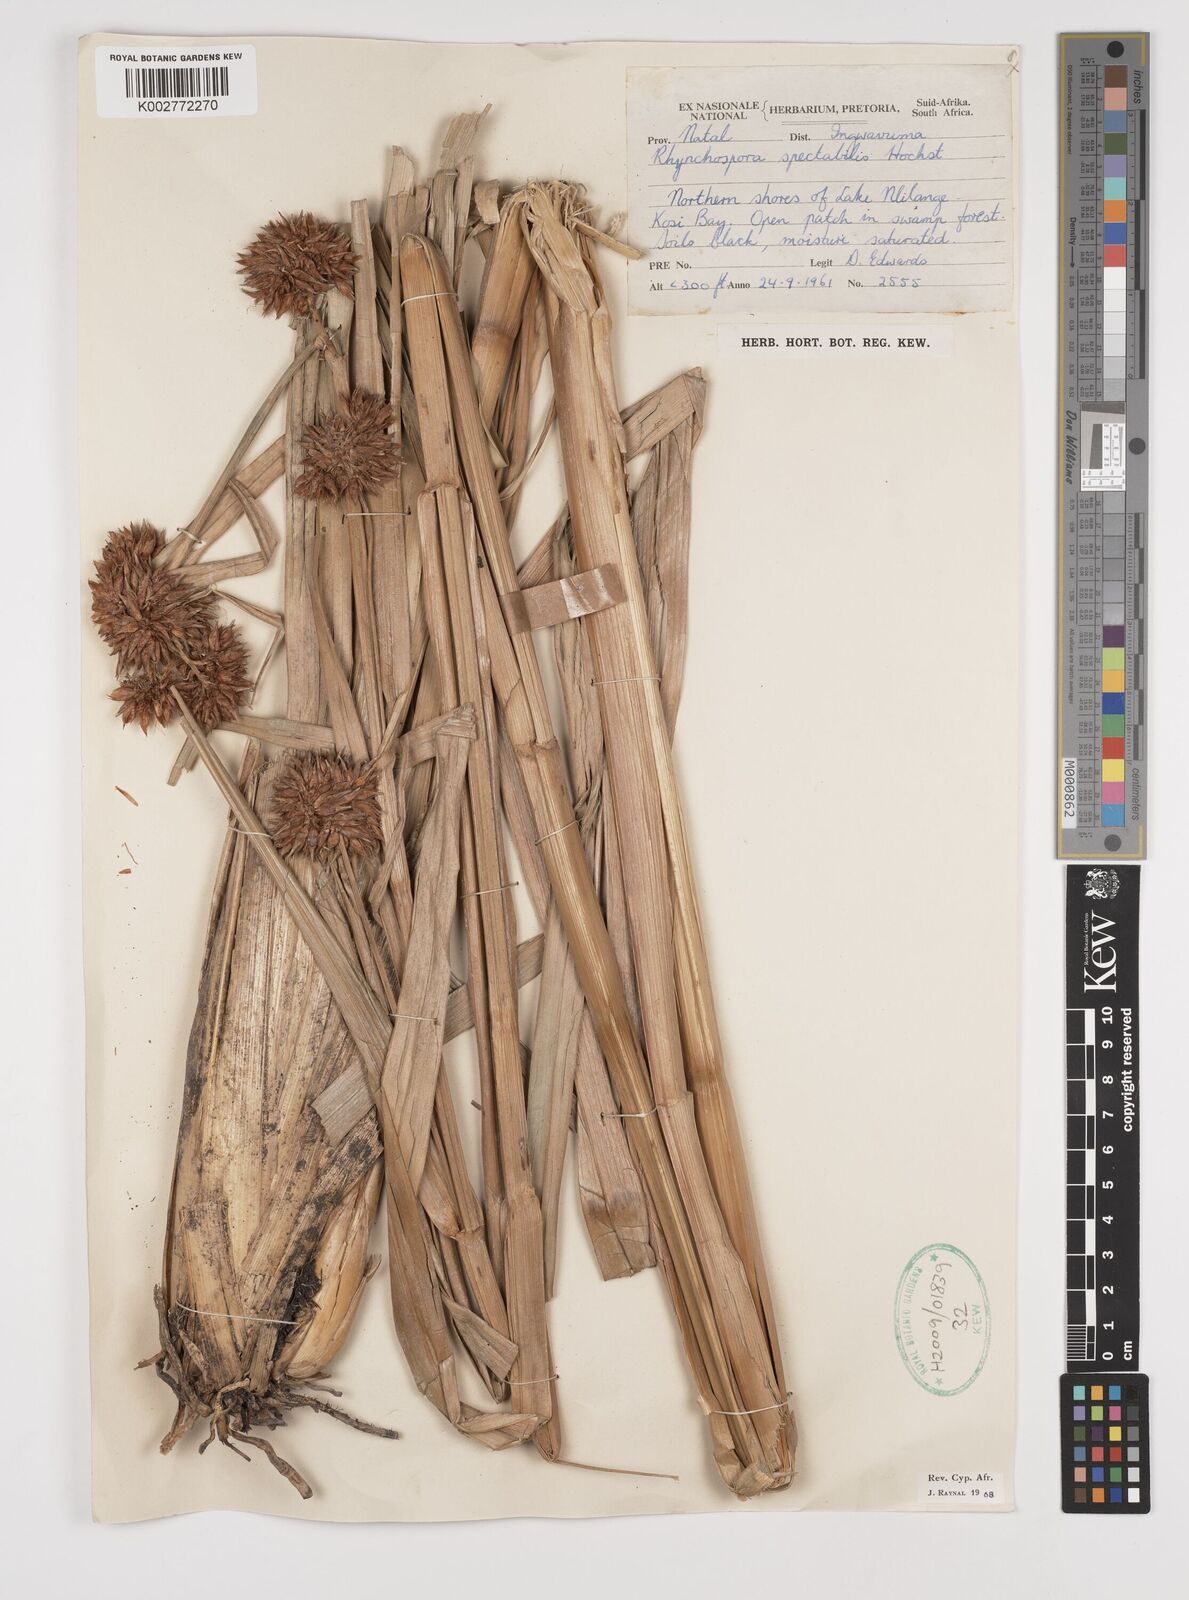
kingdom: Plantae
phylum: Tracheophyta
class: Liliopsida
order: Poales
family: Cyperaceae
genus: Rhynchospora
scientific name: Rhynchospora corymbosa
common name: Golden beak sedge
